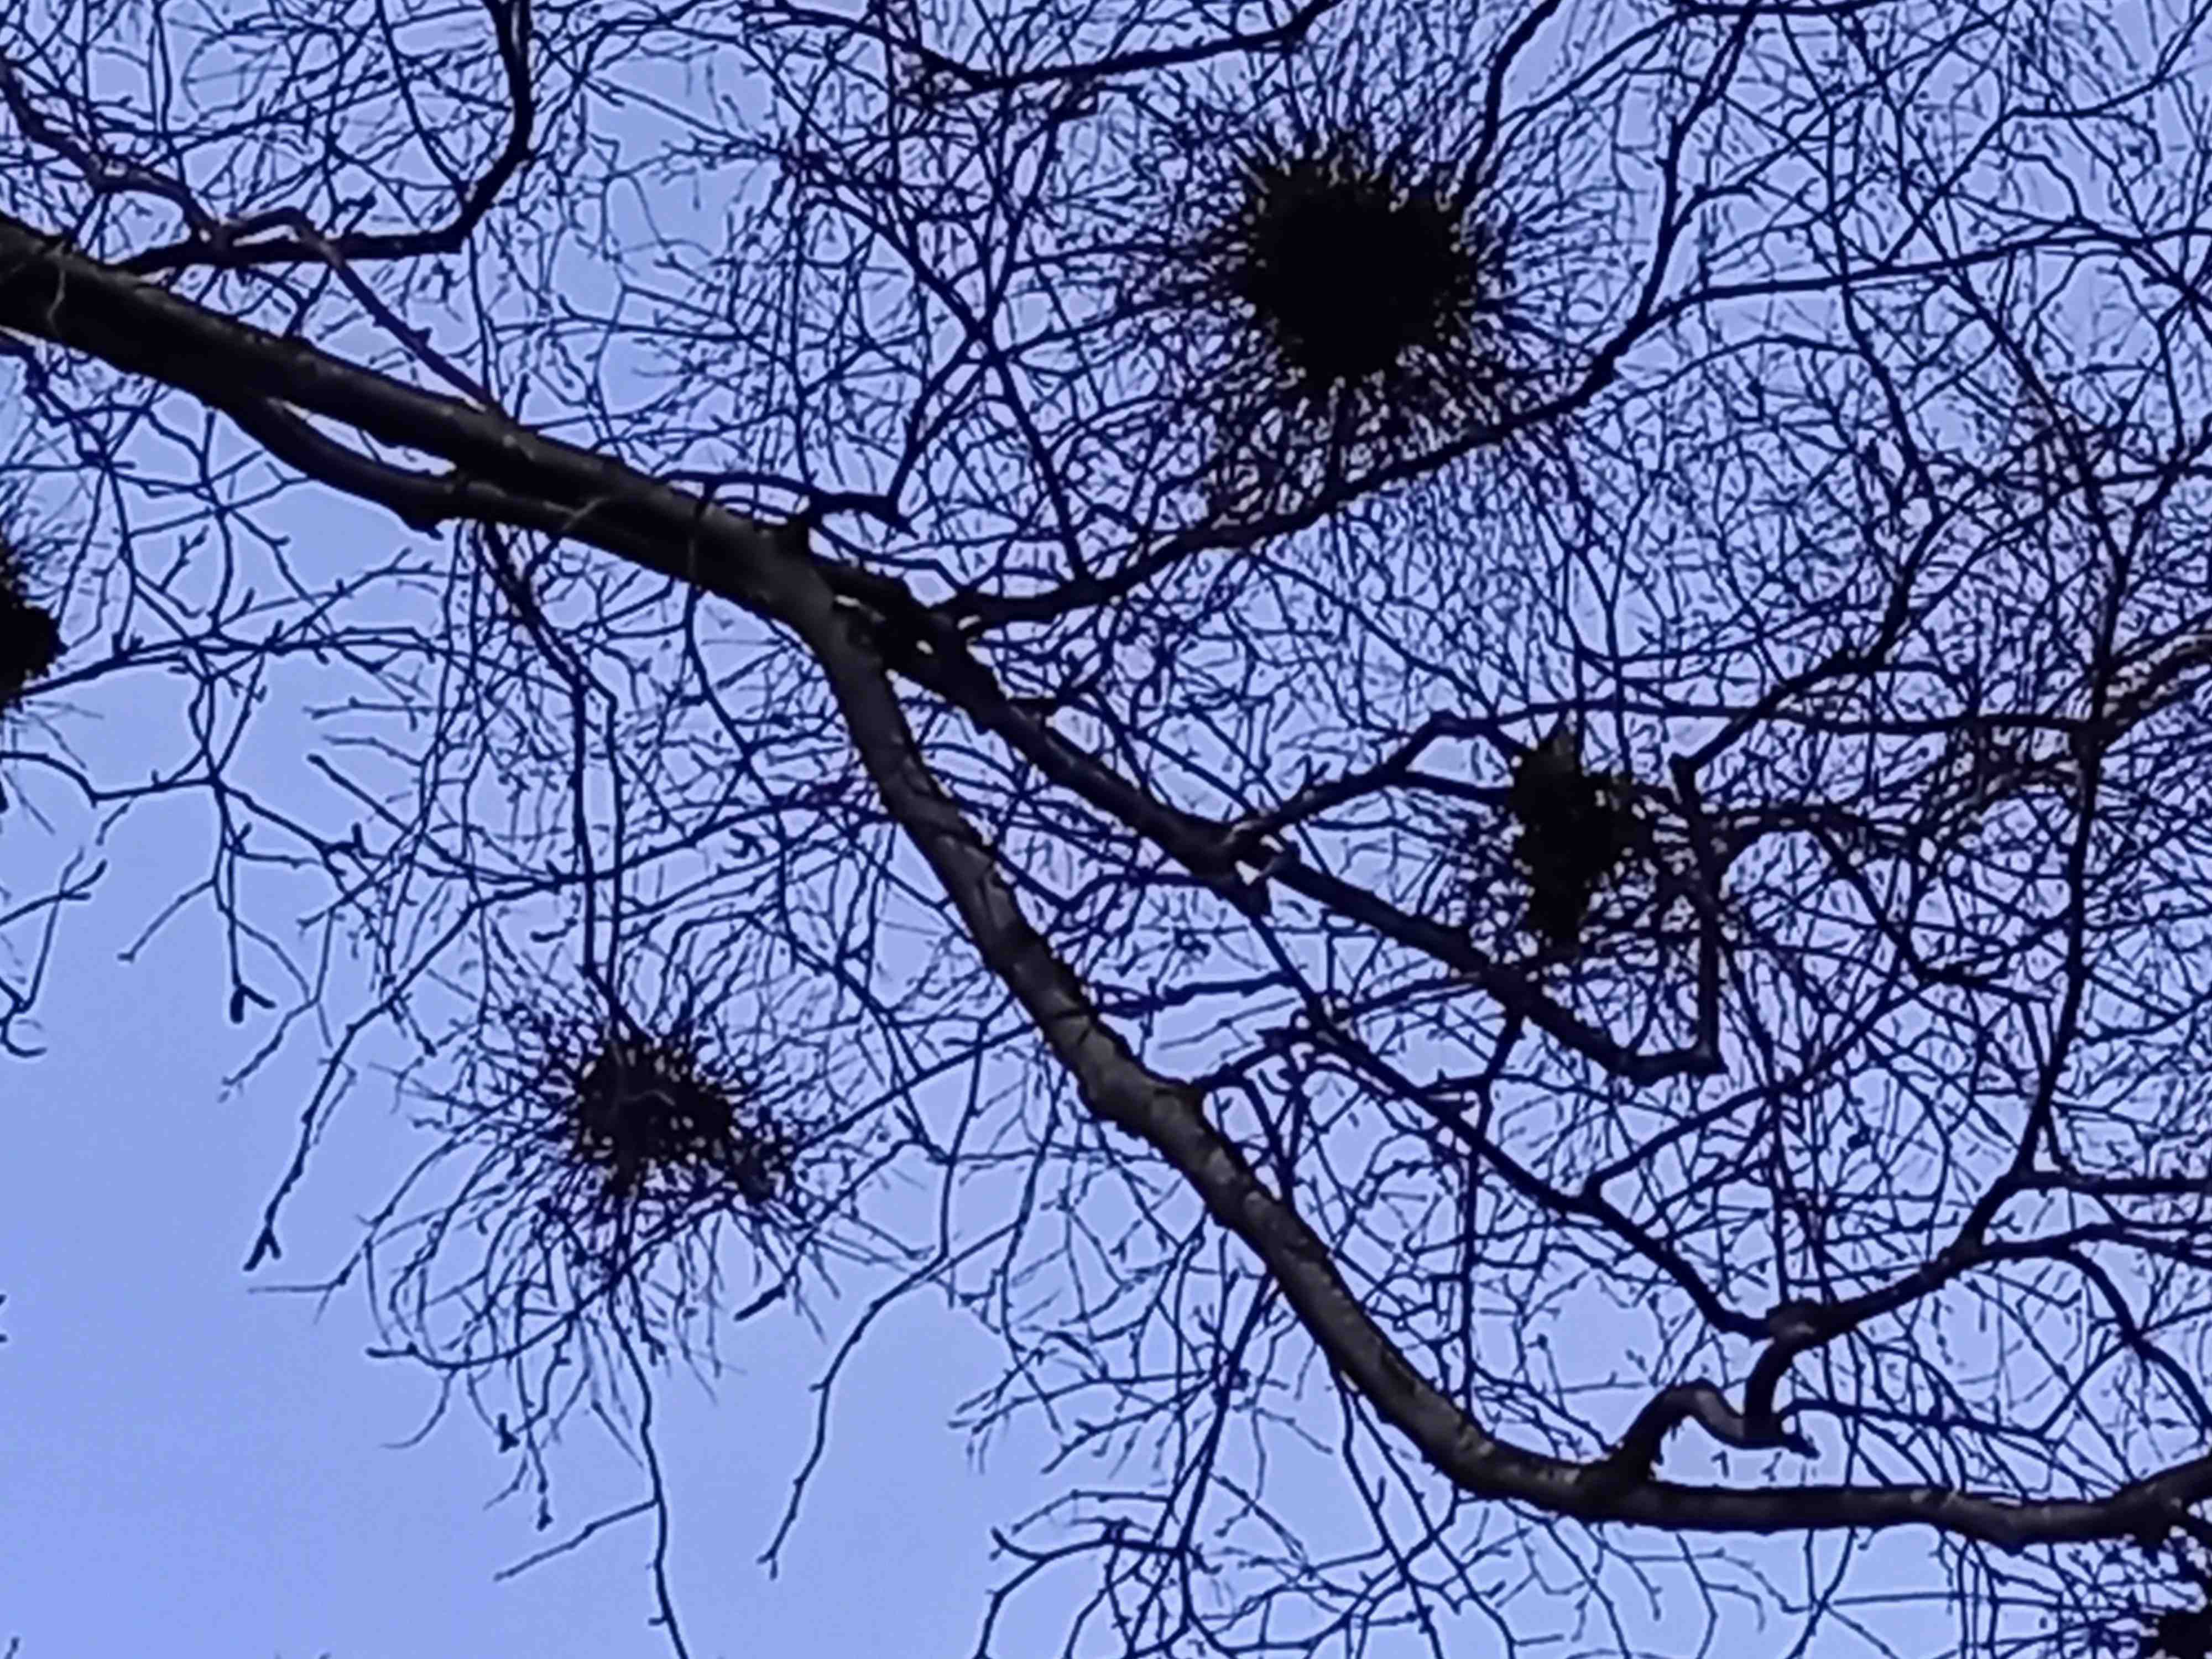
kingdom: Fungi
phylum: Ascomycota
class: Taphrinomycetes
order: Taphrinales
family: Taphrinaceae
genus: Taphrina
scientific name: Taphrina betulina
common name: hekse-sækdug
